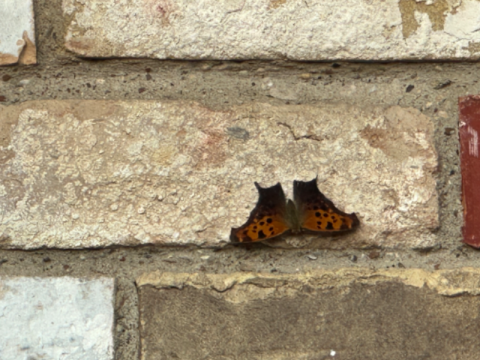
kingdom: Animalia
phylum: Arthropoda
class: Insecta
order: Lepidoptera
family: Nymphalidae
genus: Polygonia
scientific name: Polygonia interrogationis
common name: Question Mark
